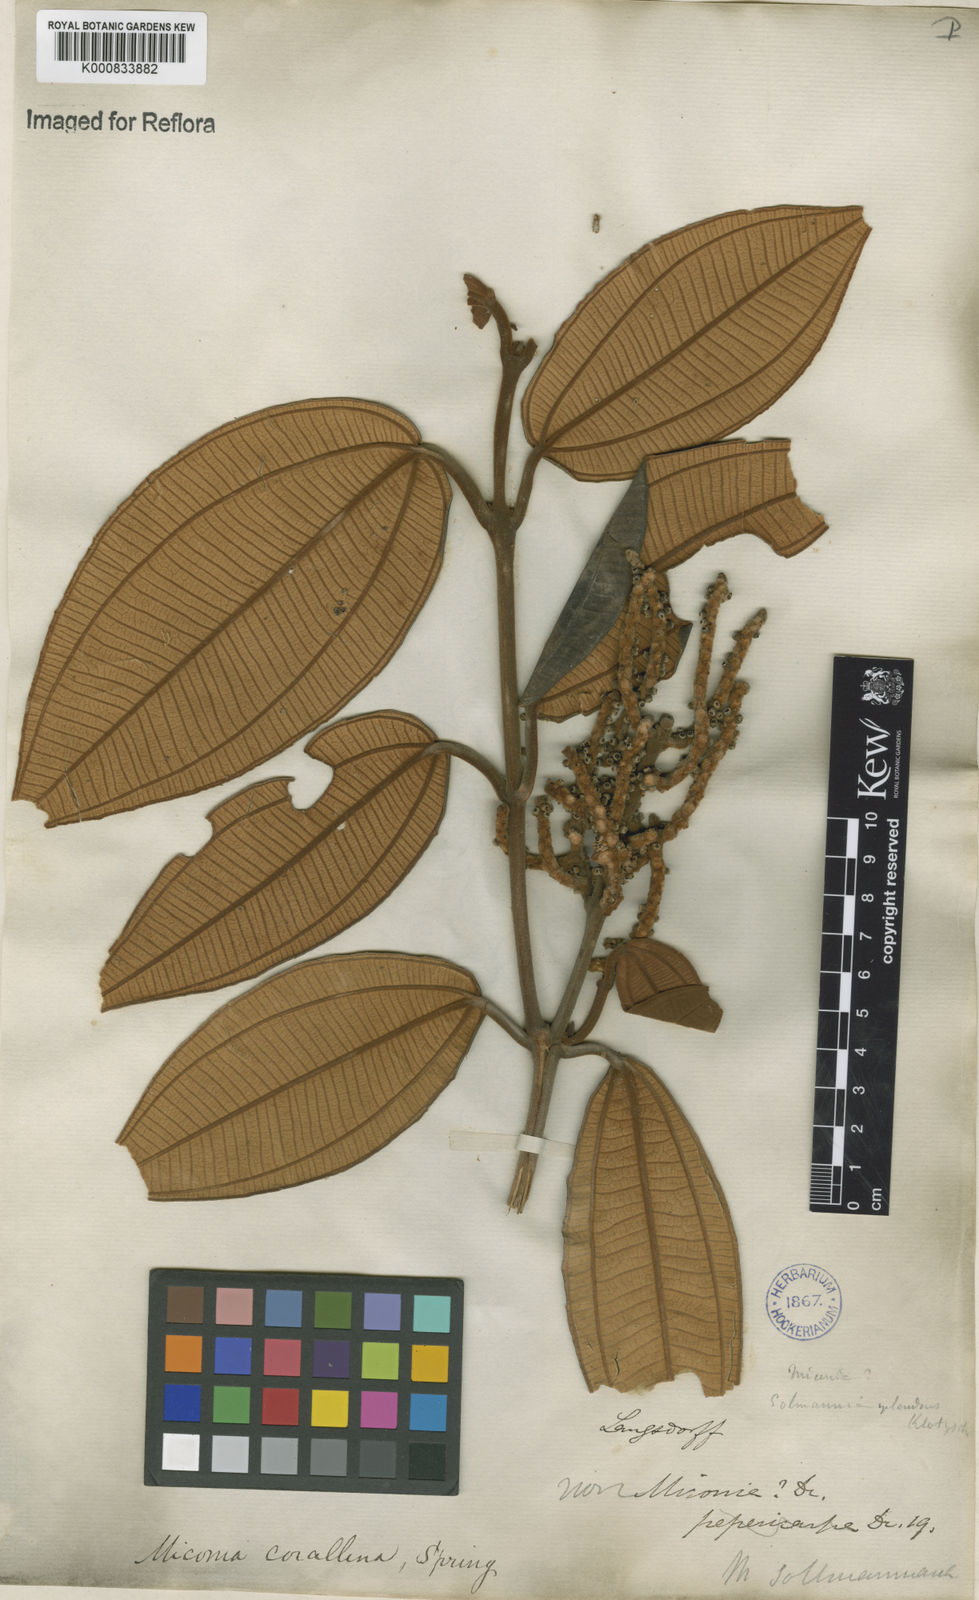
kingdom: Plantae
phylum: Tracheophyta
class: Magnoliopsida
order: Myrtales
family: Melastomataceae
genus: Miconia
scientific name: Miconia
